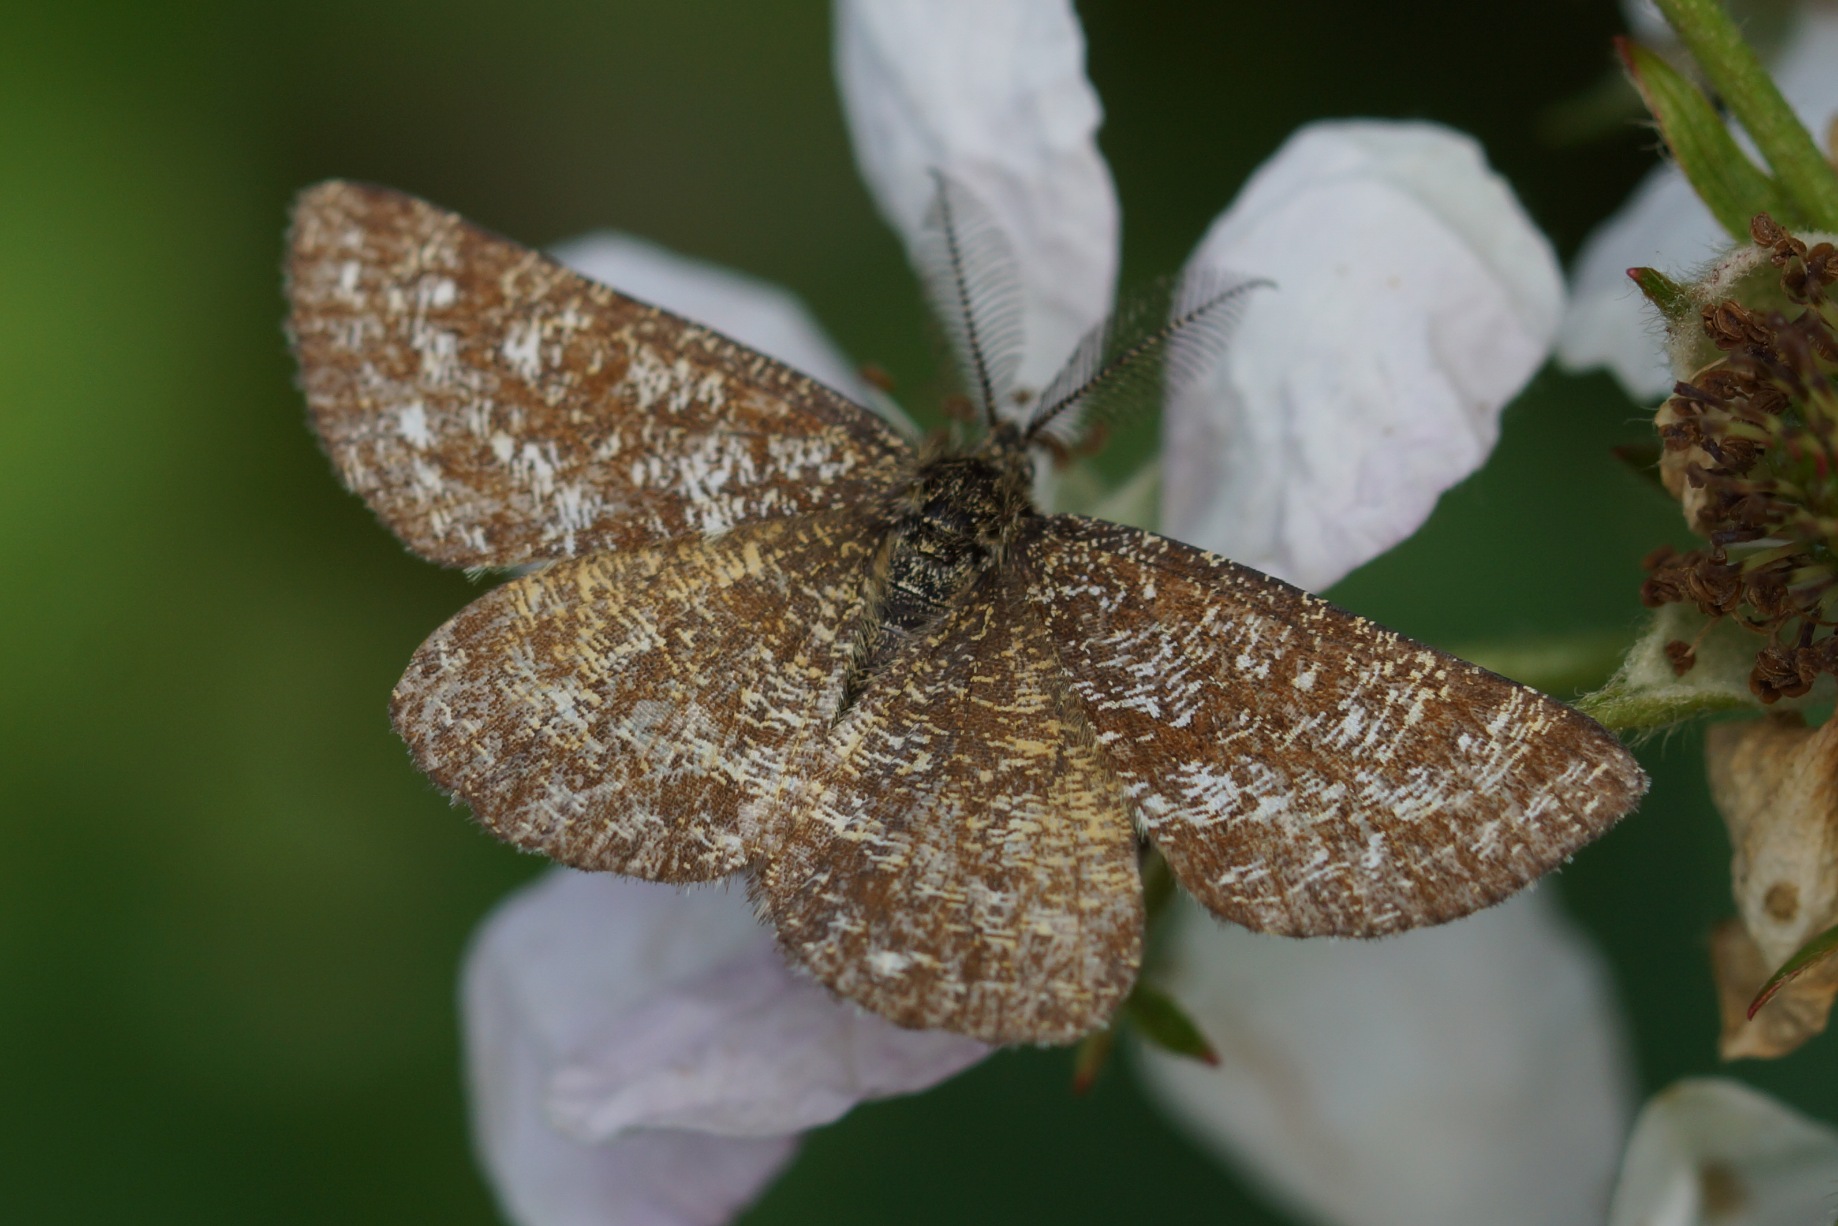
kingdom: Animalia
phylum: Arthropoda
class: Insecta
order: Lepidoptera
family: Geometridae
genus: Ematurga
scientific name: Ematurga atomaria
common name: Lyngmåler
